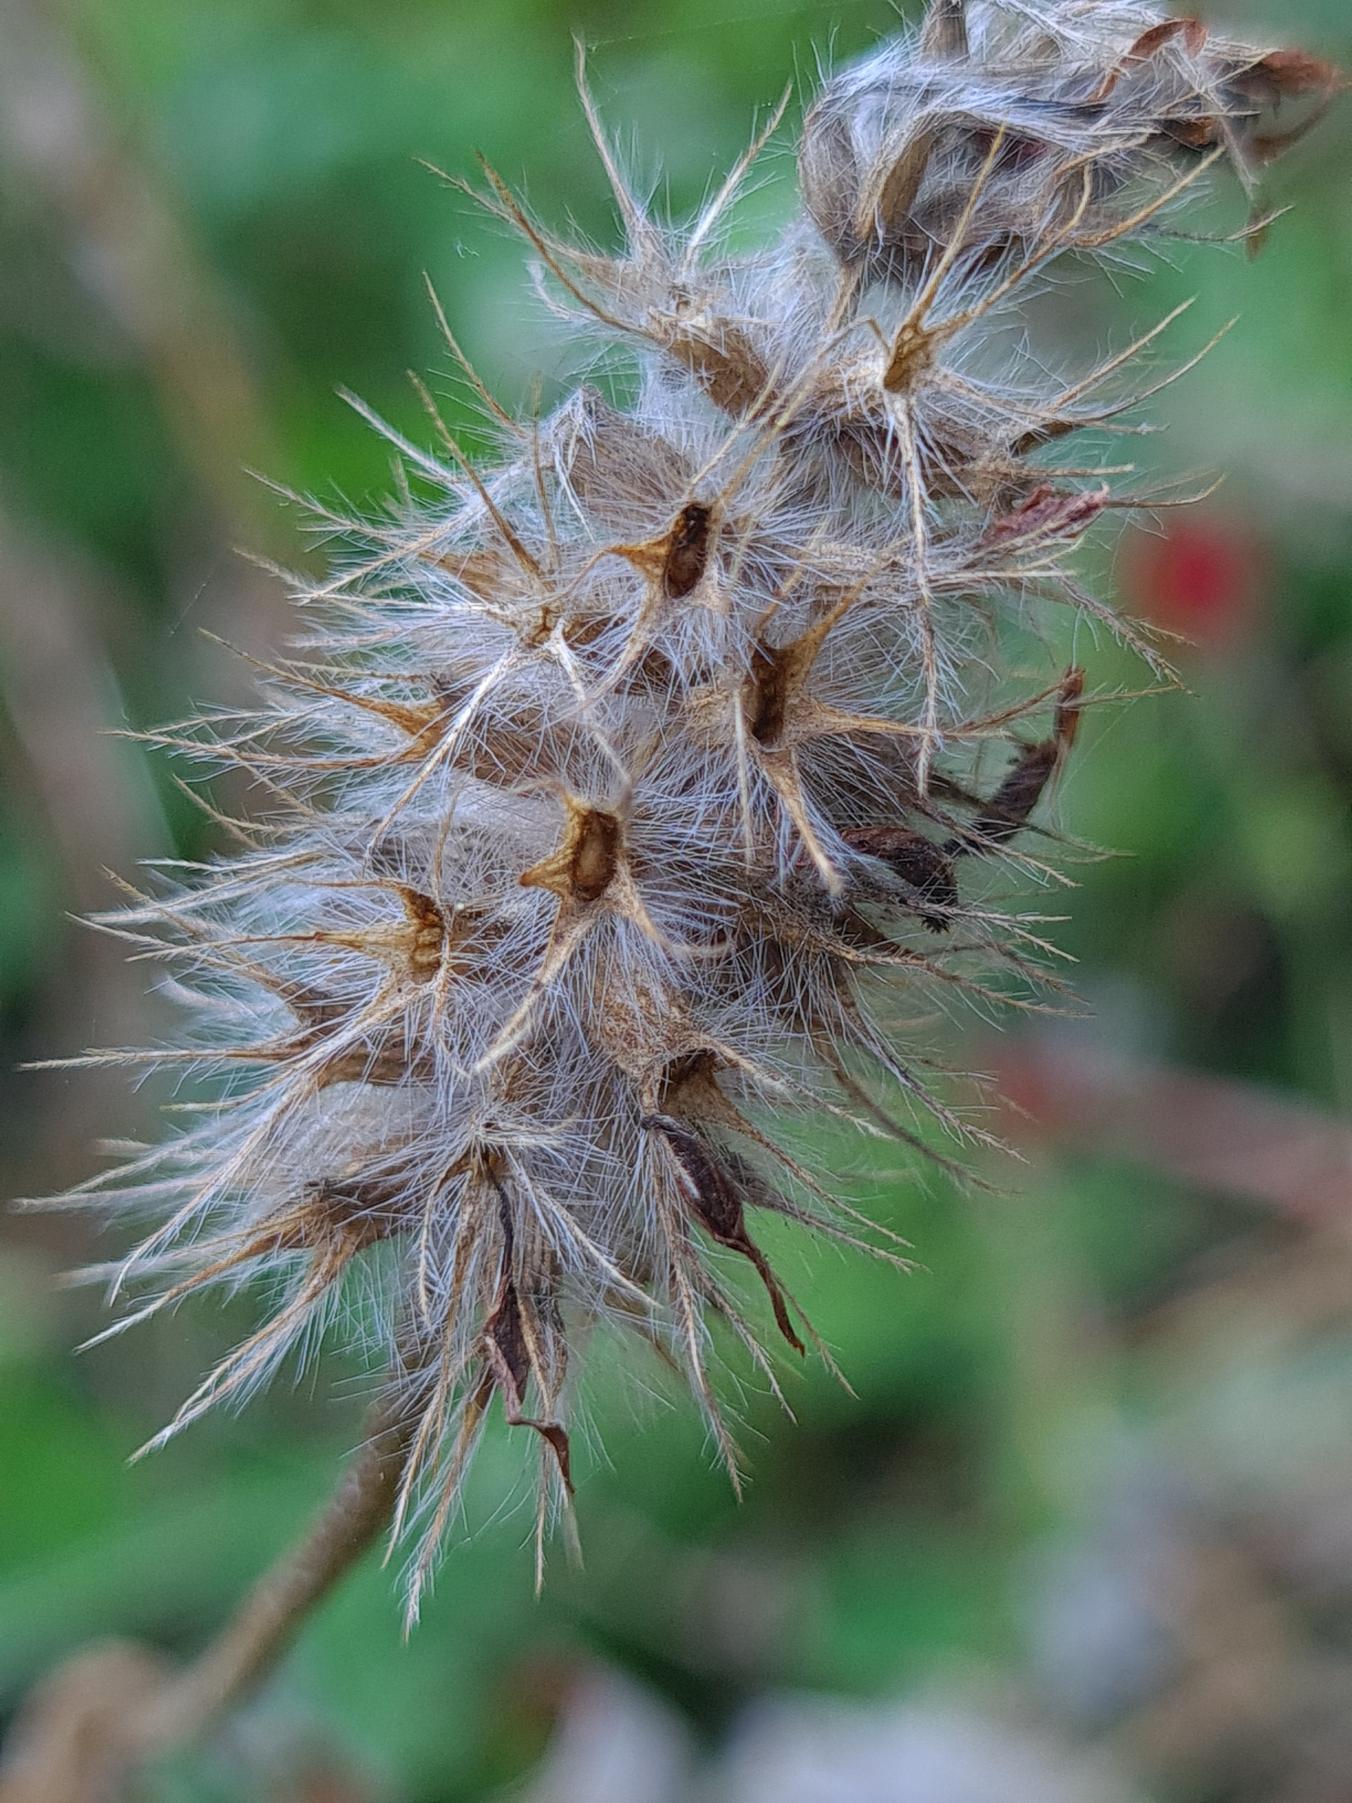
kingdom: Plantae
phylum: Tracheophyta
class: Magnoliopsida
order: Fabales
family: Fabaceae
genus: Trifolium
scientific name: Trifolium incarnatum
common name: Blod-kløver
